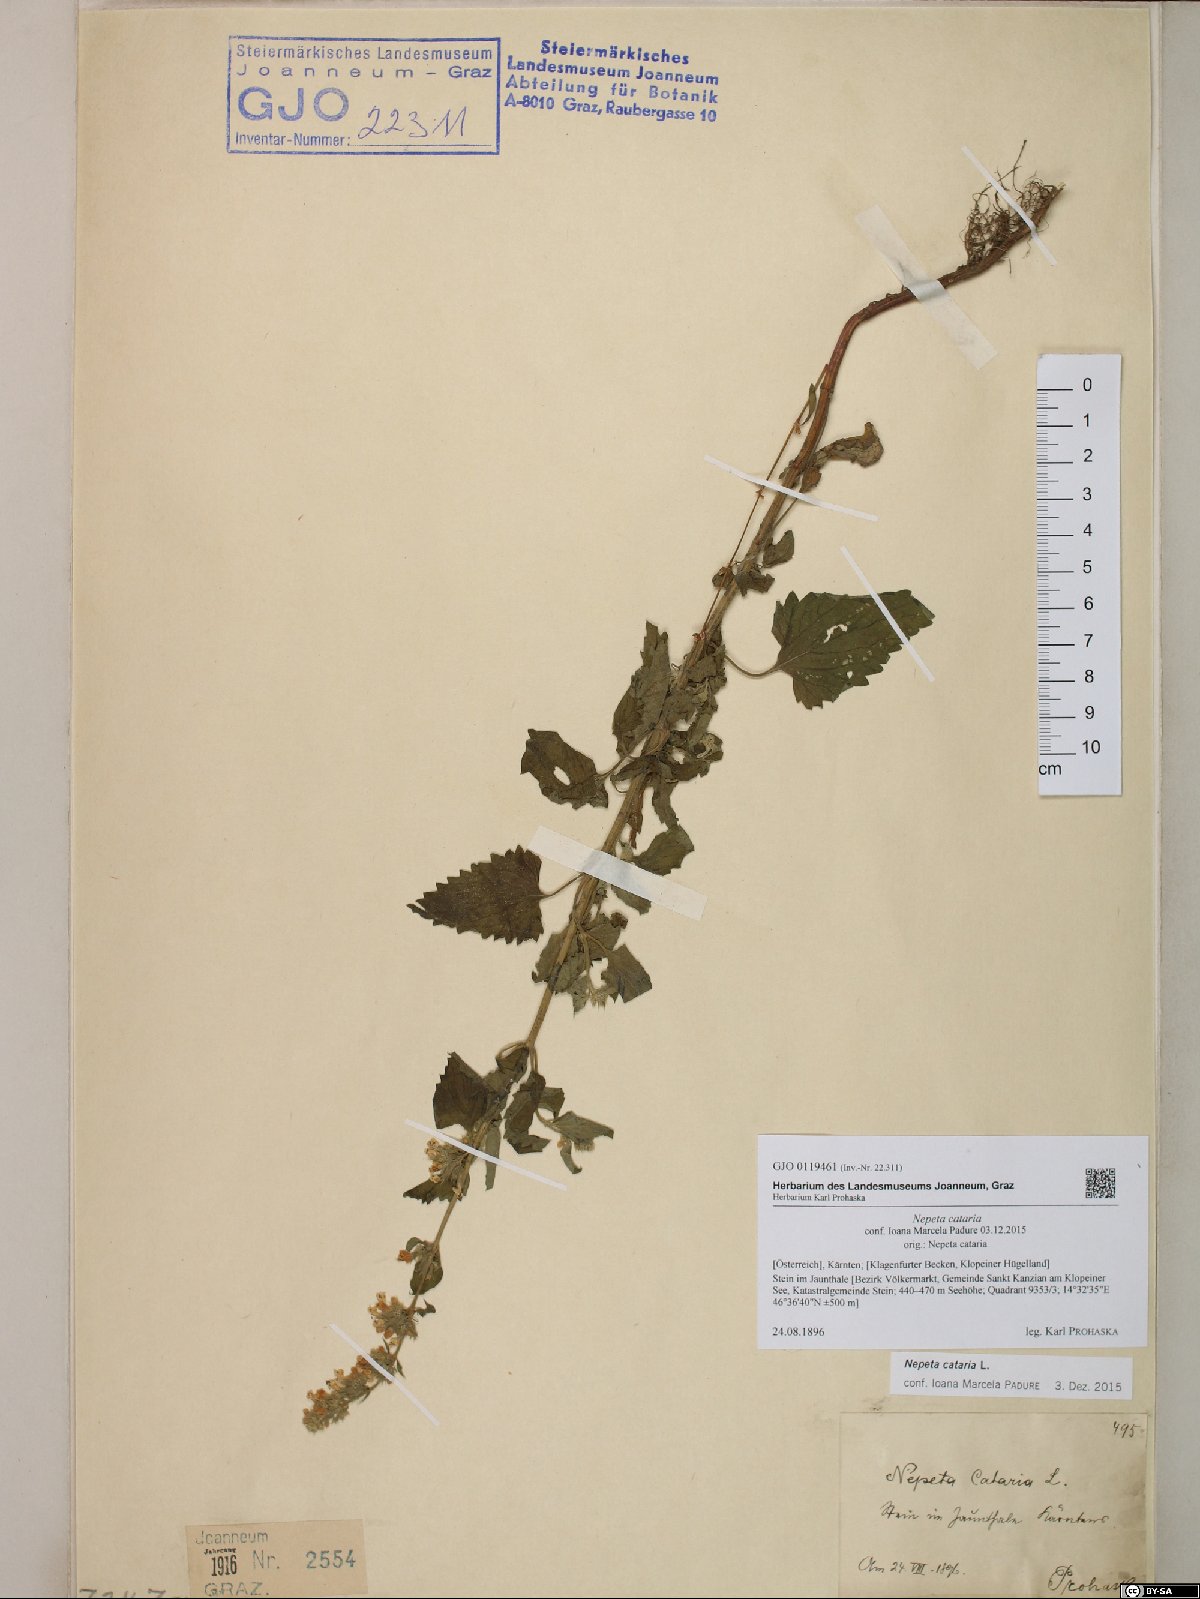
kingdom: Plantae
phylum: Tracheophyta
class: Magnoliopsida
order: Lamiales
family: Lamiaceae
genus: Nepeta
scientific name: Nepeta cataria
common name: Catnip
